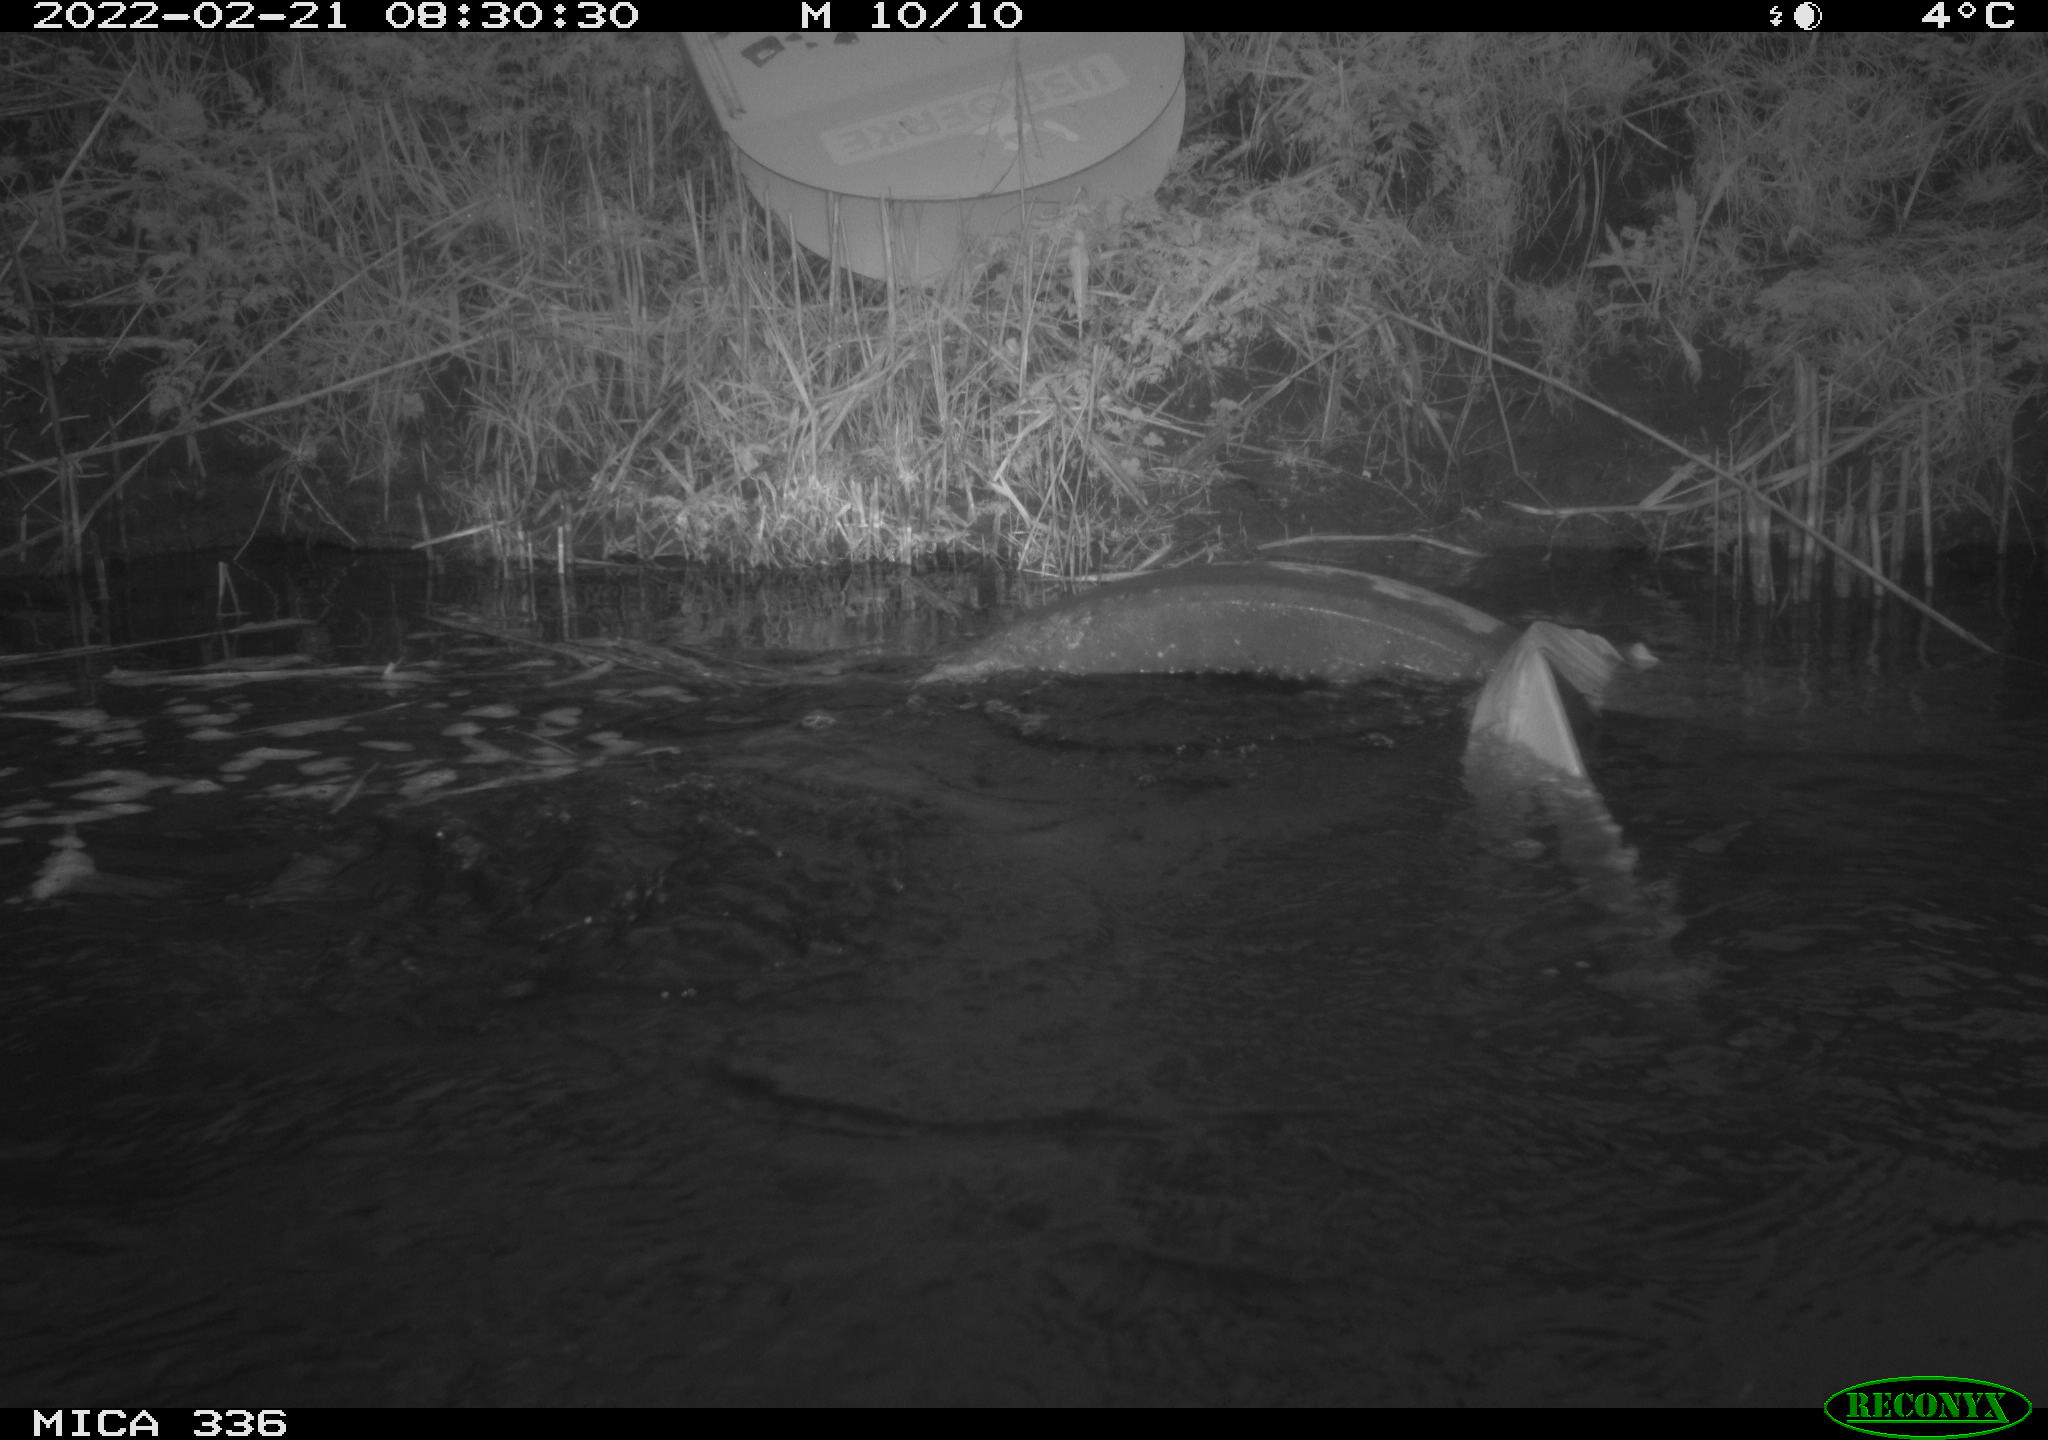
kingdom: Animalia
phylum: Chordata
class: Aves
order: Suliformes
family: Phalacrocoracidae
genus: Phalacrocorax
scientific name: Phalacrocorax carbo
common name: Great cormorant
